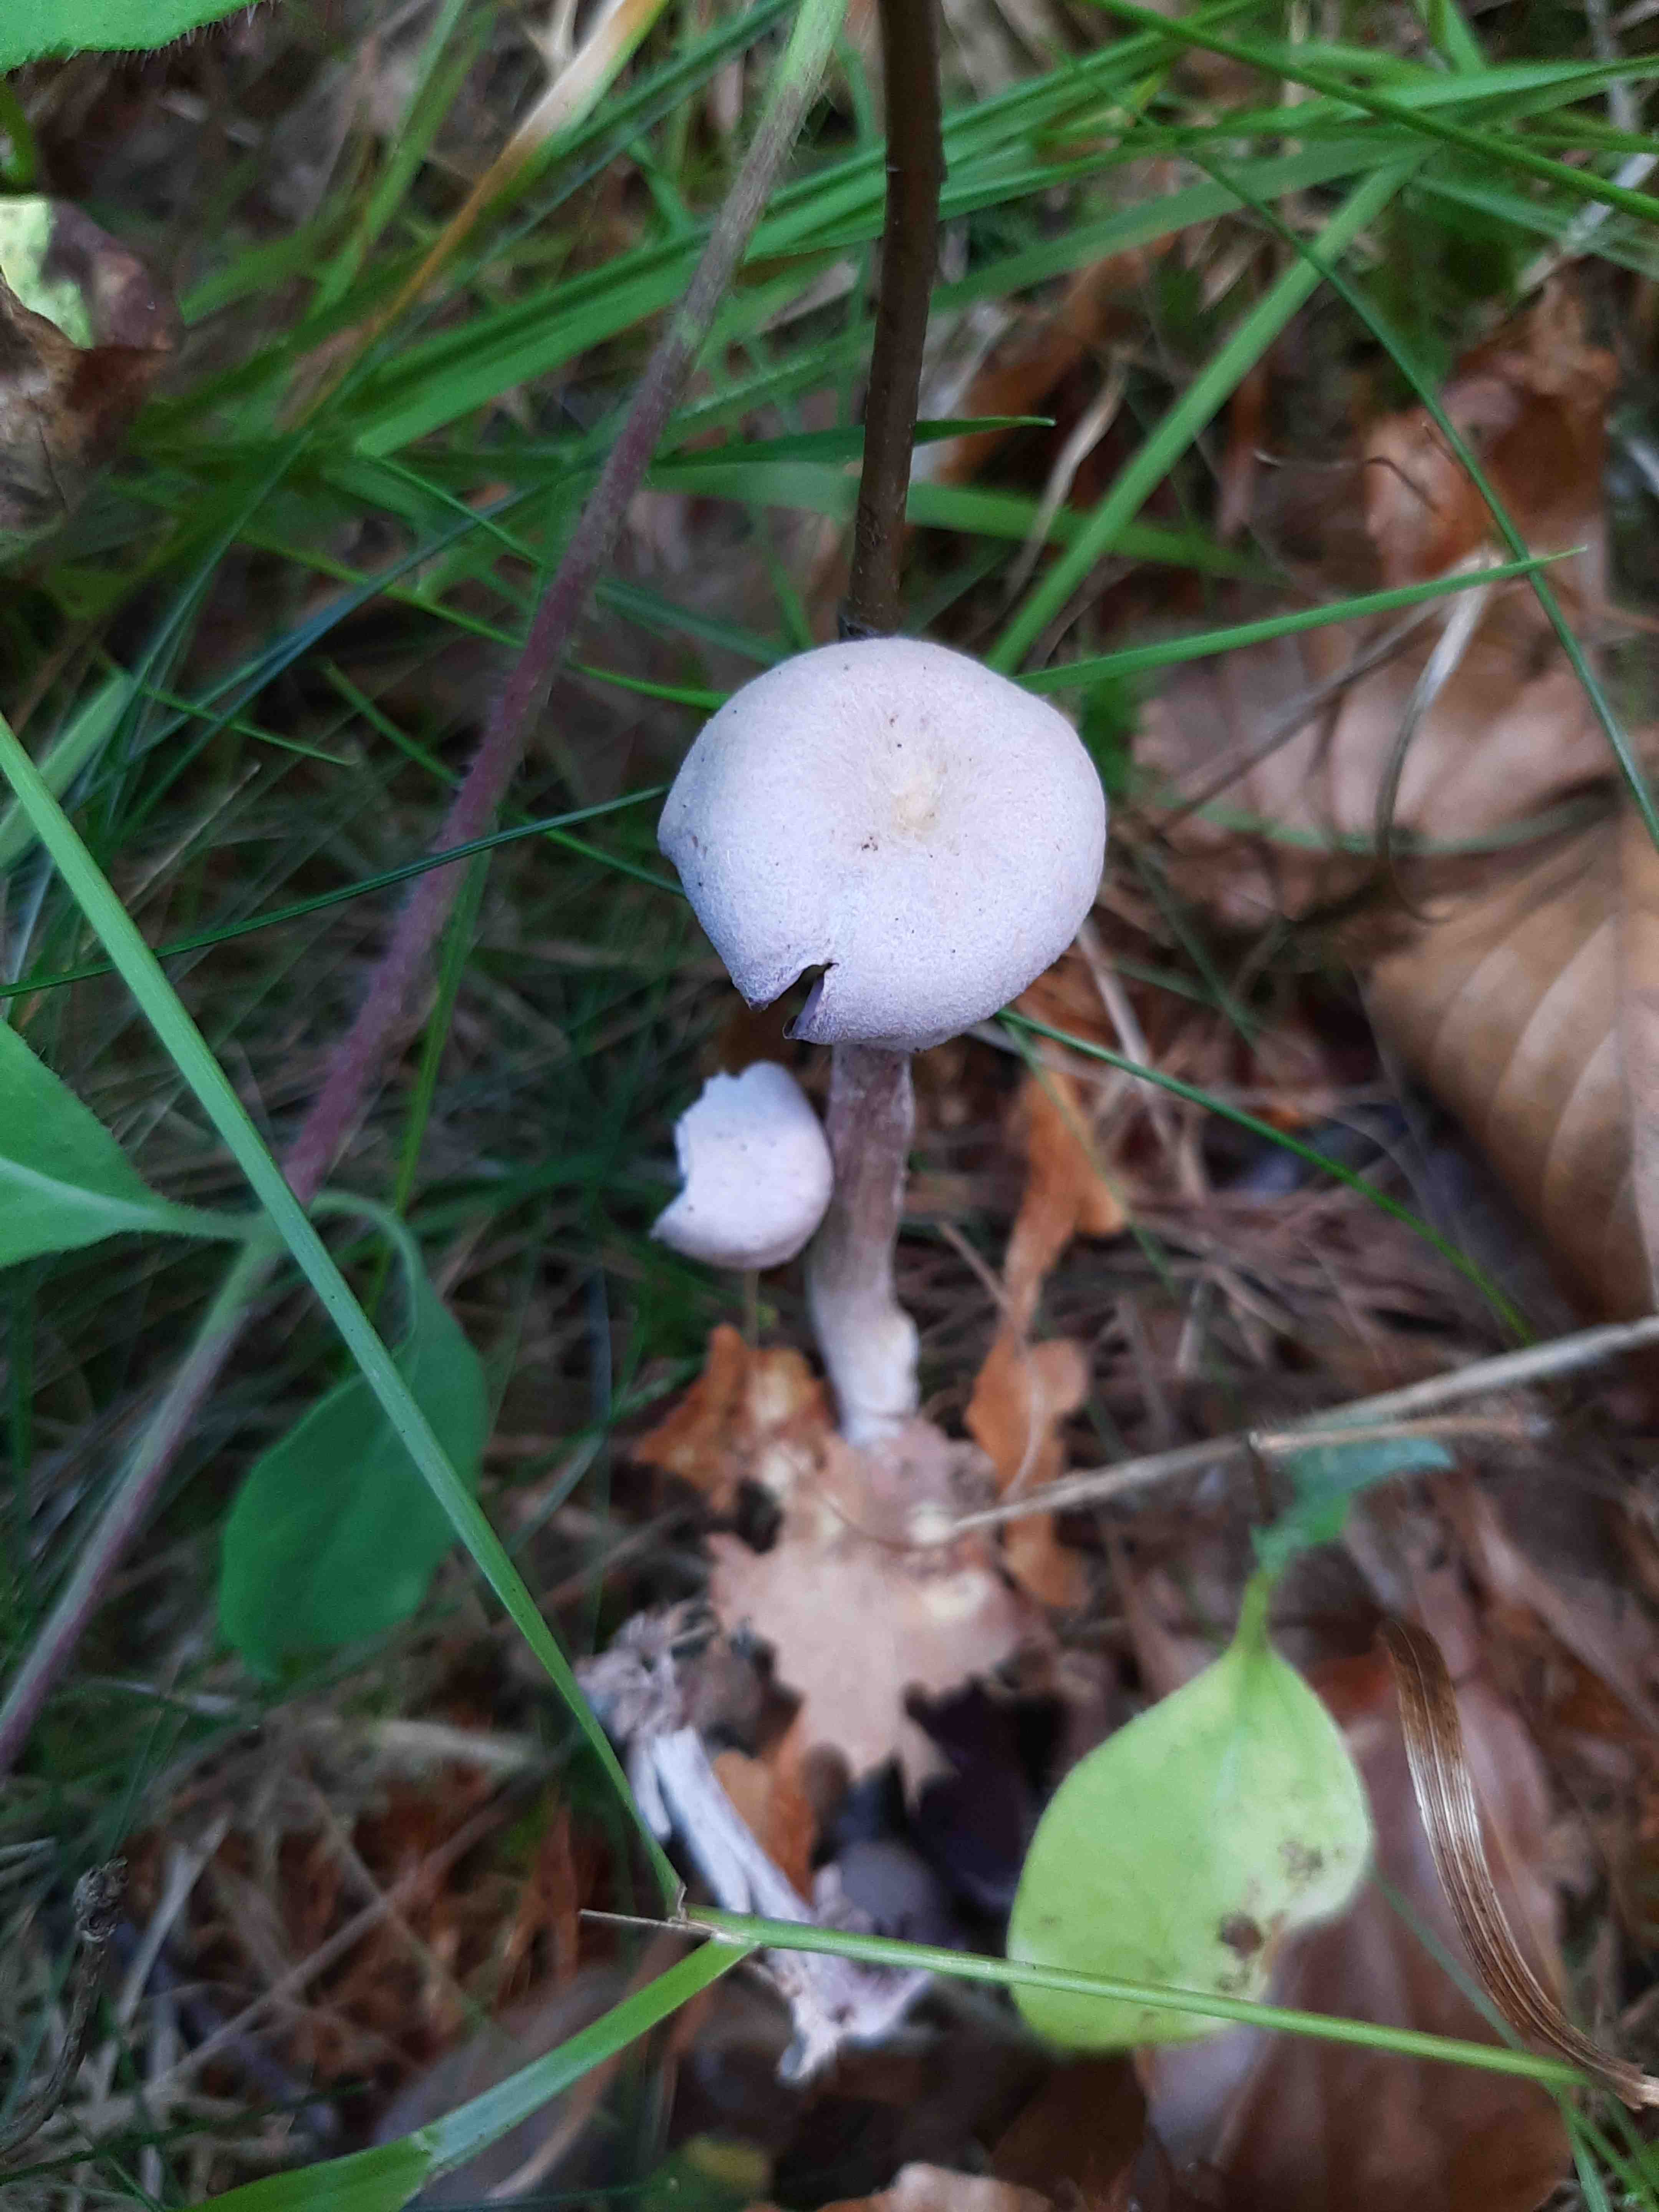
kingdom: Fungi
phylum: Basidiomycota
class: Agaricomycetes
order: Agaricales
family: Hydnangiaceae
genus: Laccaria
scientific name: Laccaria amethystina
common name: violet ametysthat
